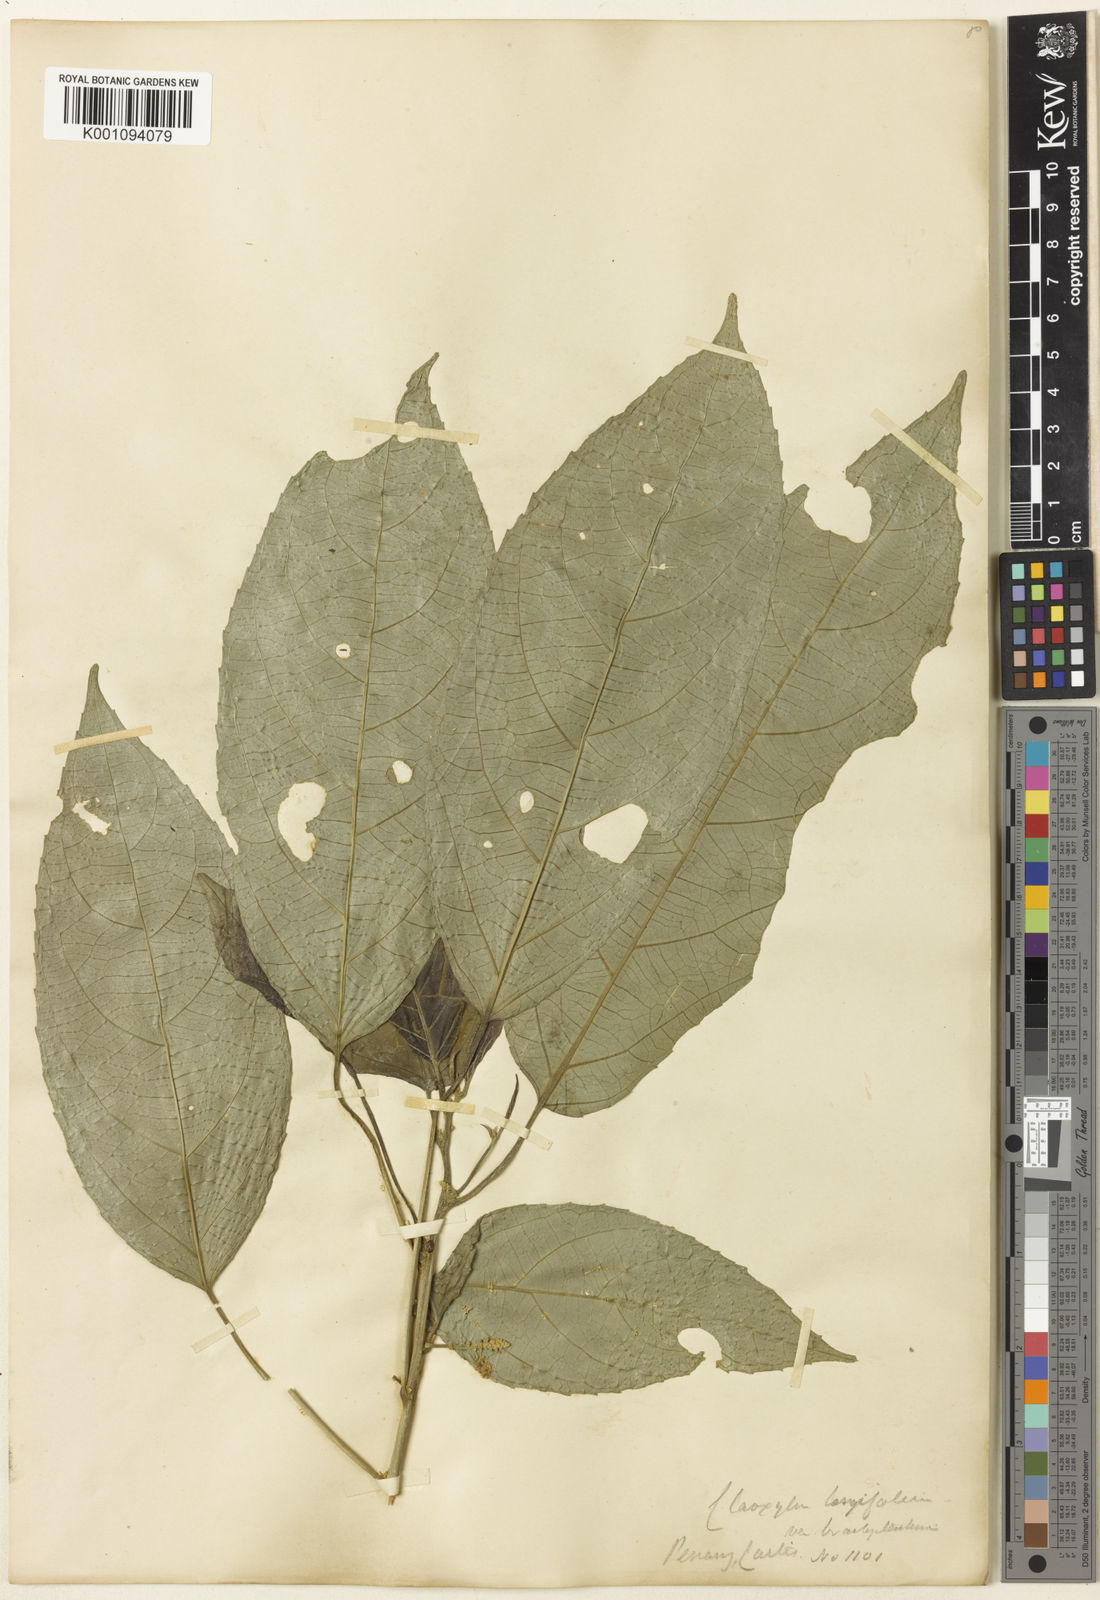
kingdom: Plantae
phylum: Tracheophyta
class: Magnoliopsida
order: Malpighiales
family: Euphorbiaceae
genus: Claoxylon
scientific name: Claoxylon longifolium
